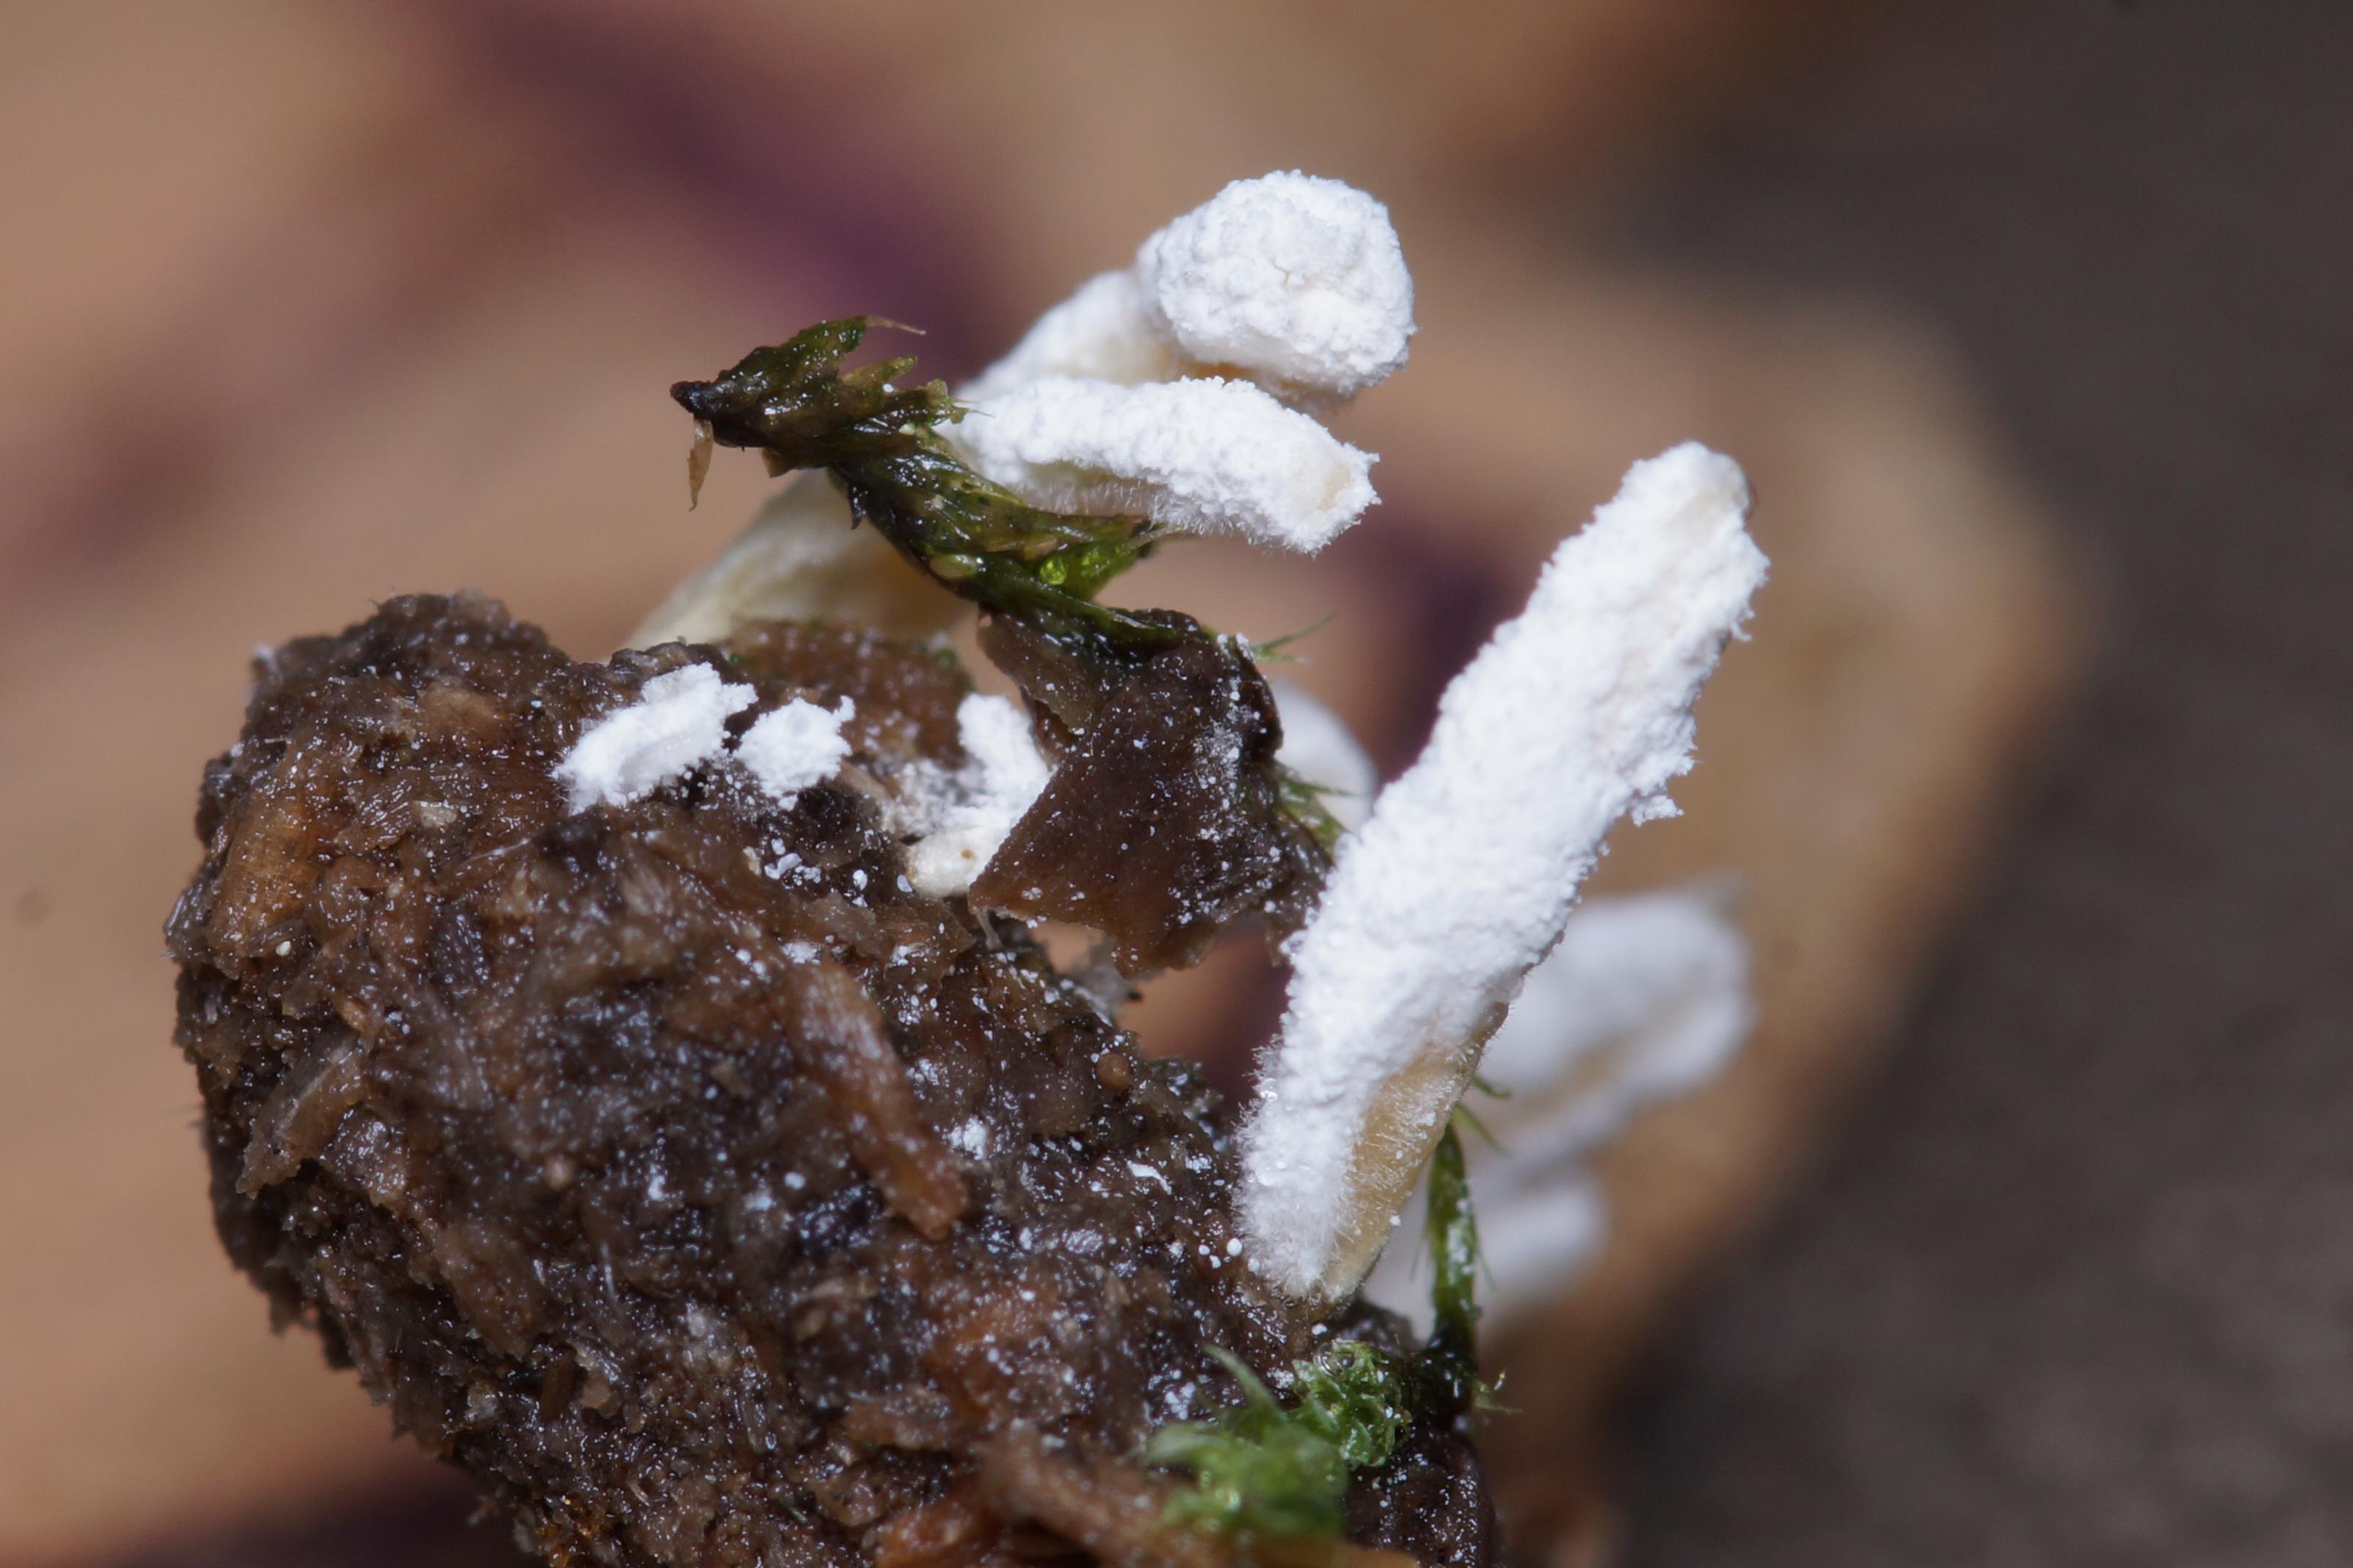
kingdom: Fungi
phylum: Ascomycota
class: Sordariomycetes
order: Hypocreales
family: Cordycipitaceae
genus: Cordyceps
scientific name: Cordyceps farinosa
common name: melet snyltekølle
